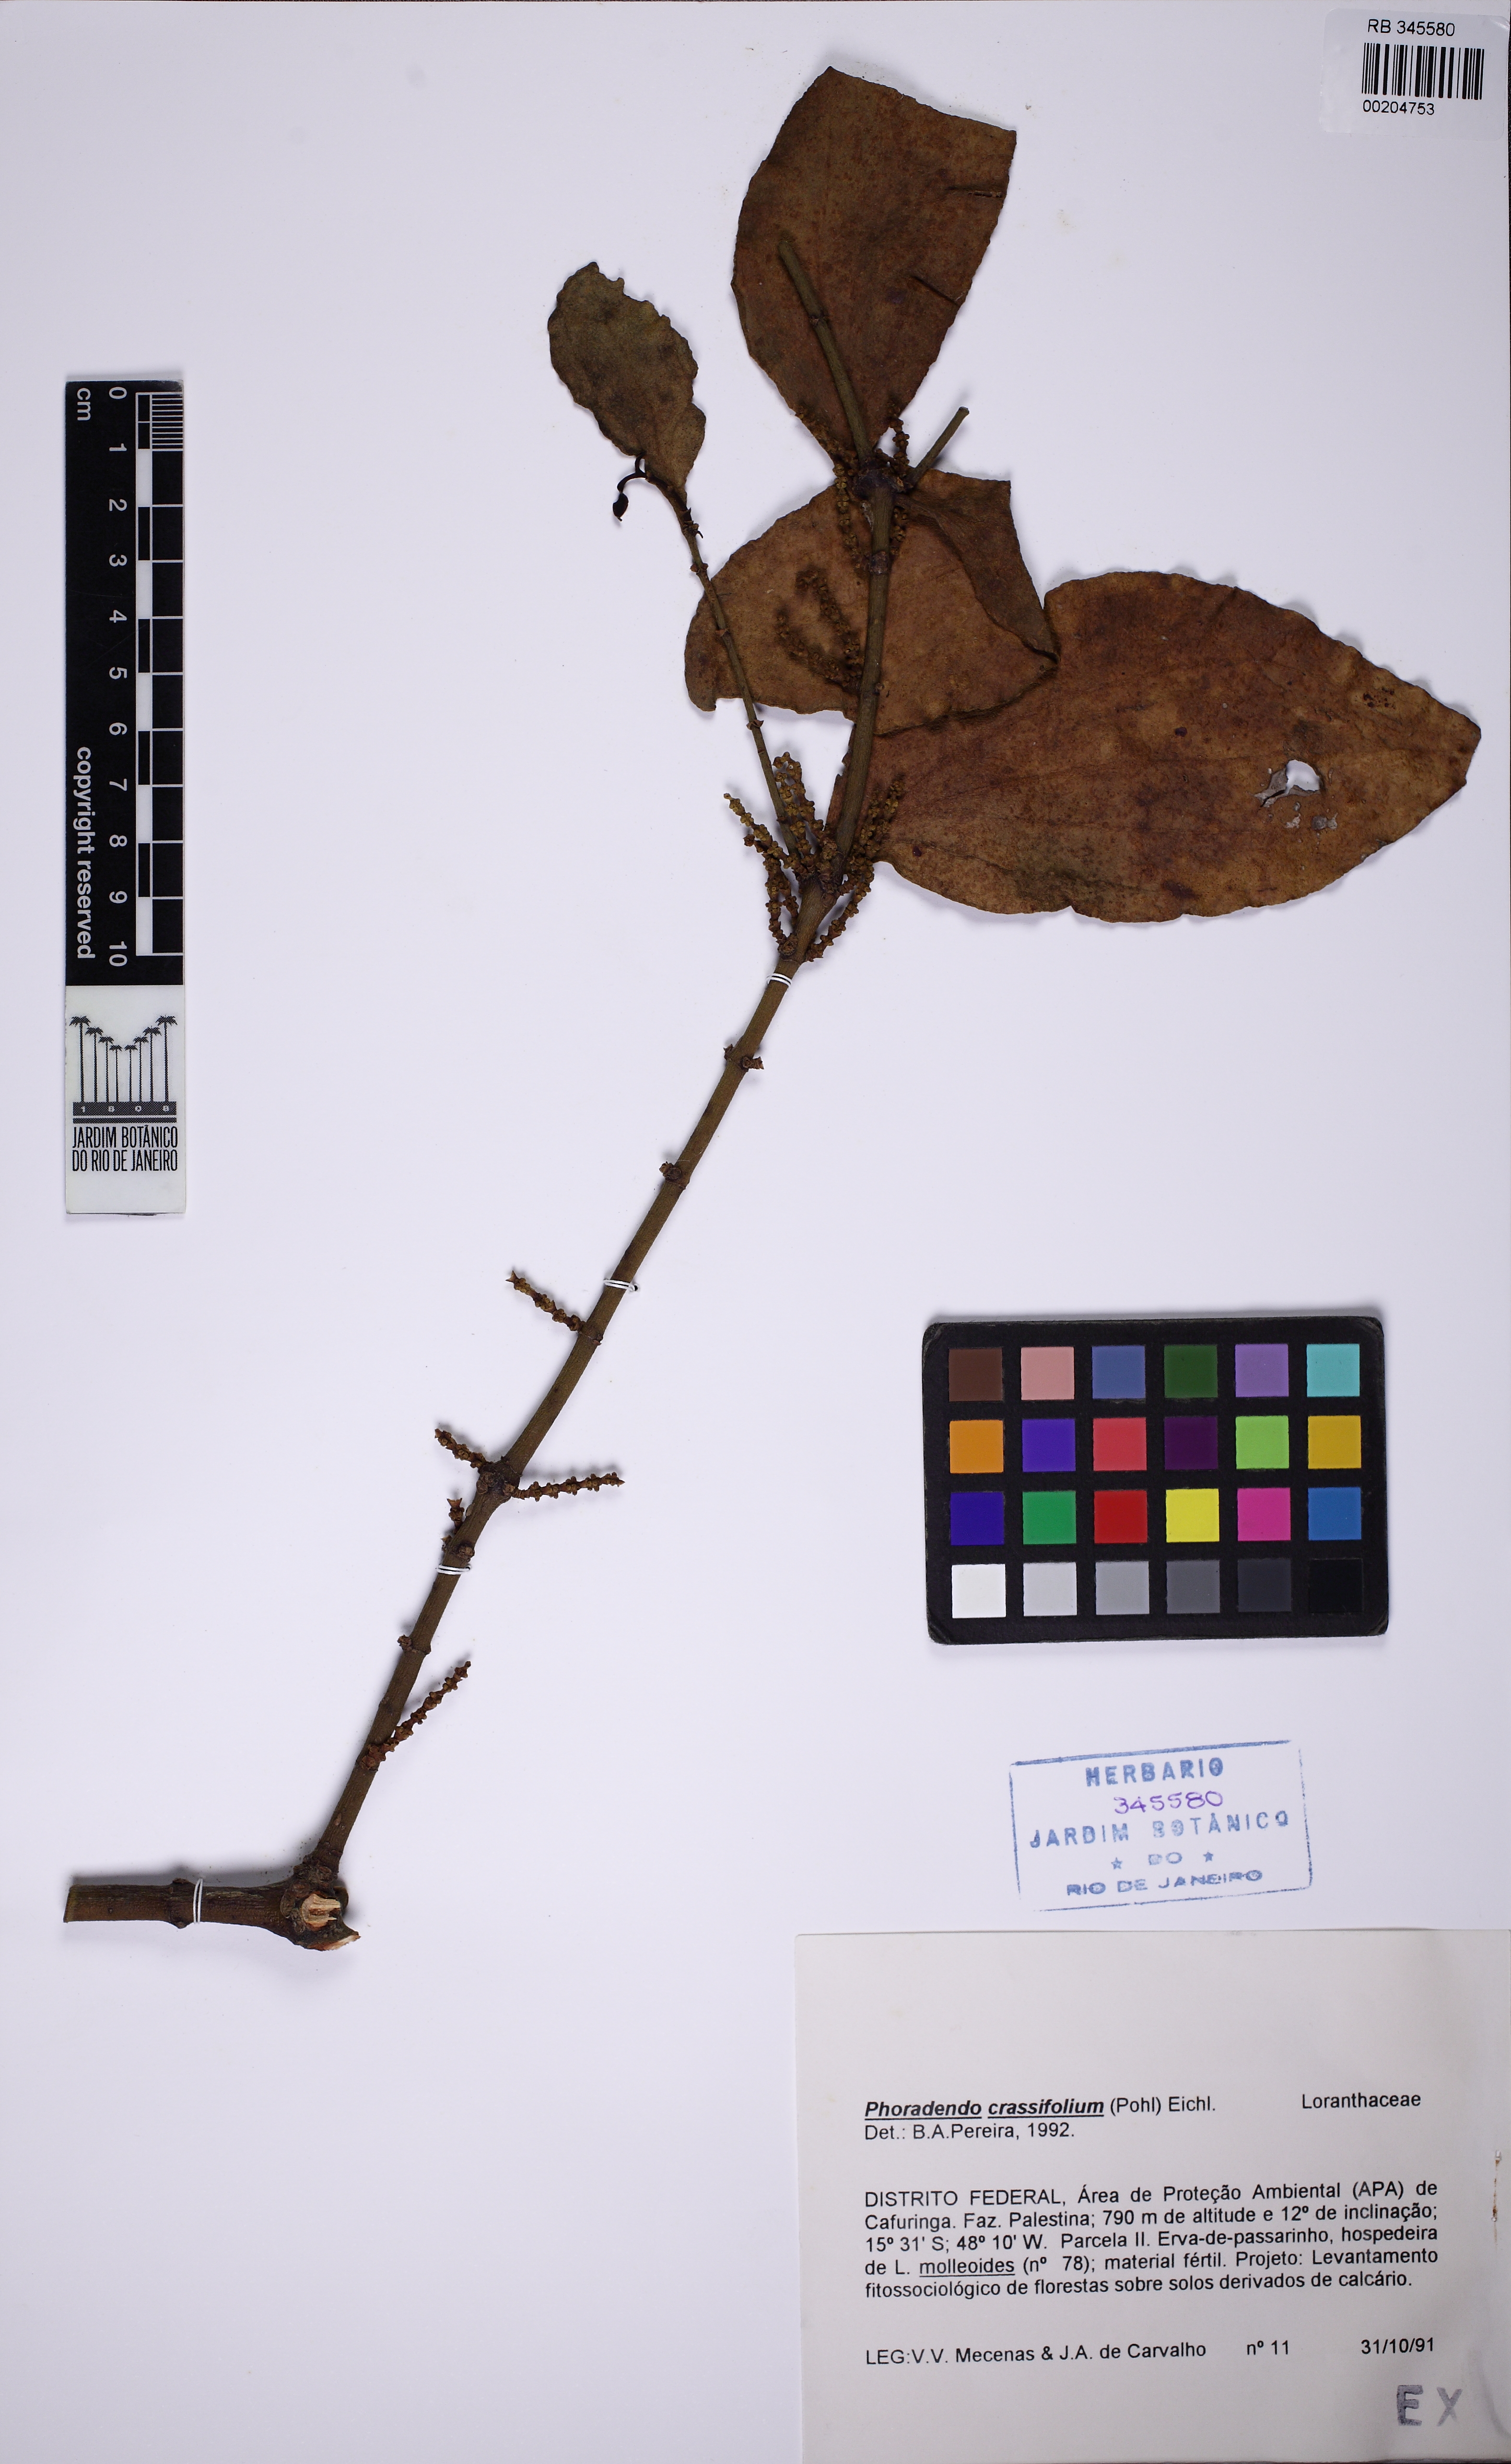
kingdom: Plantae
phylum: Tracheophyta
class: Magnoliopsida
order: Santalales
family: Viscaceae
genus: Phoradendron
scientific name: Phoradendron
